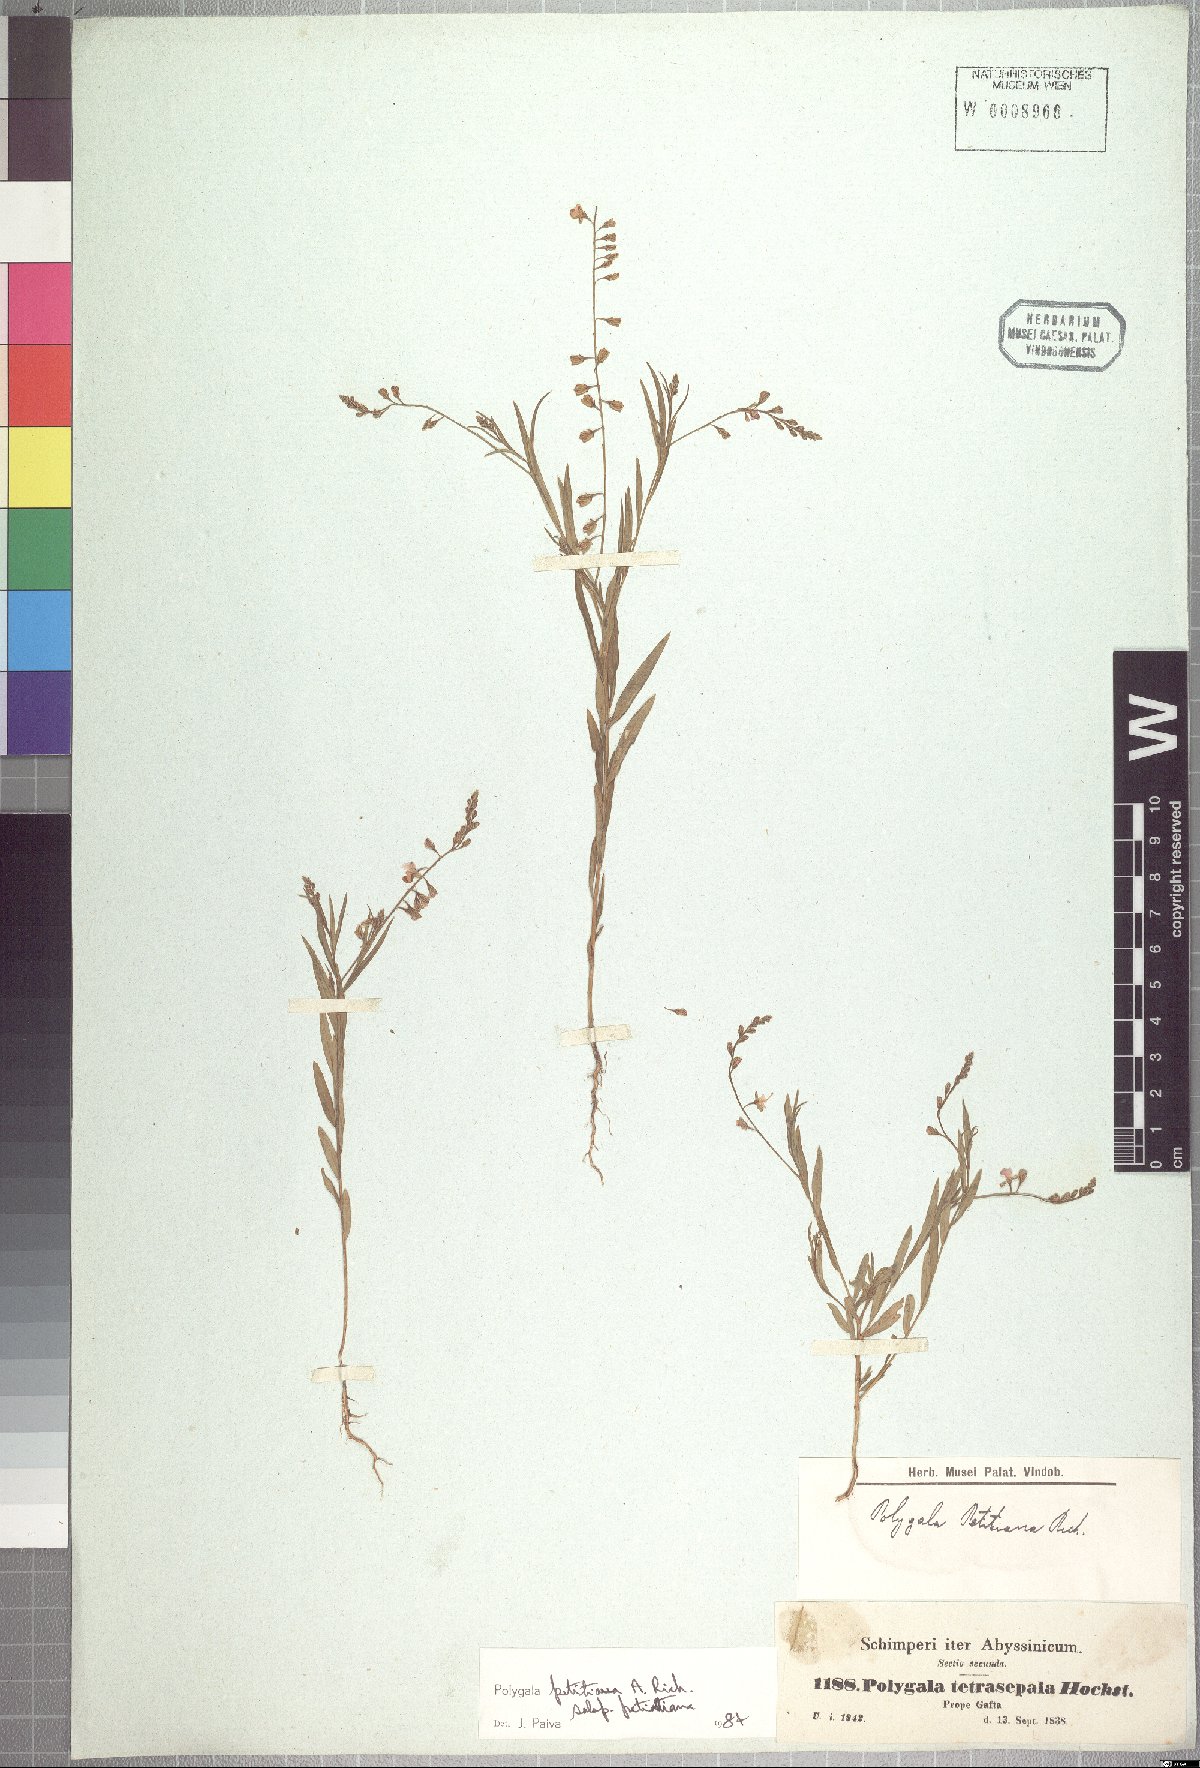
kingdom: Plantae
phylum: Tracheophyta
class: Magnoliopsida
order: Fabales
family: Polygalaceae
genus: Polygala
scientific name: Polygala petitiana
